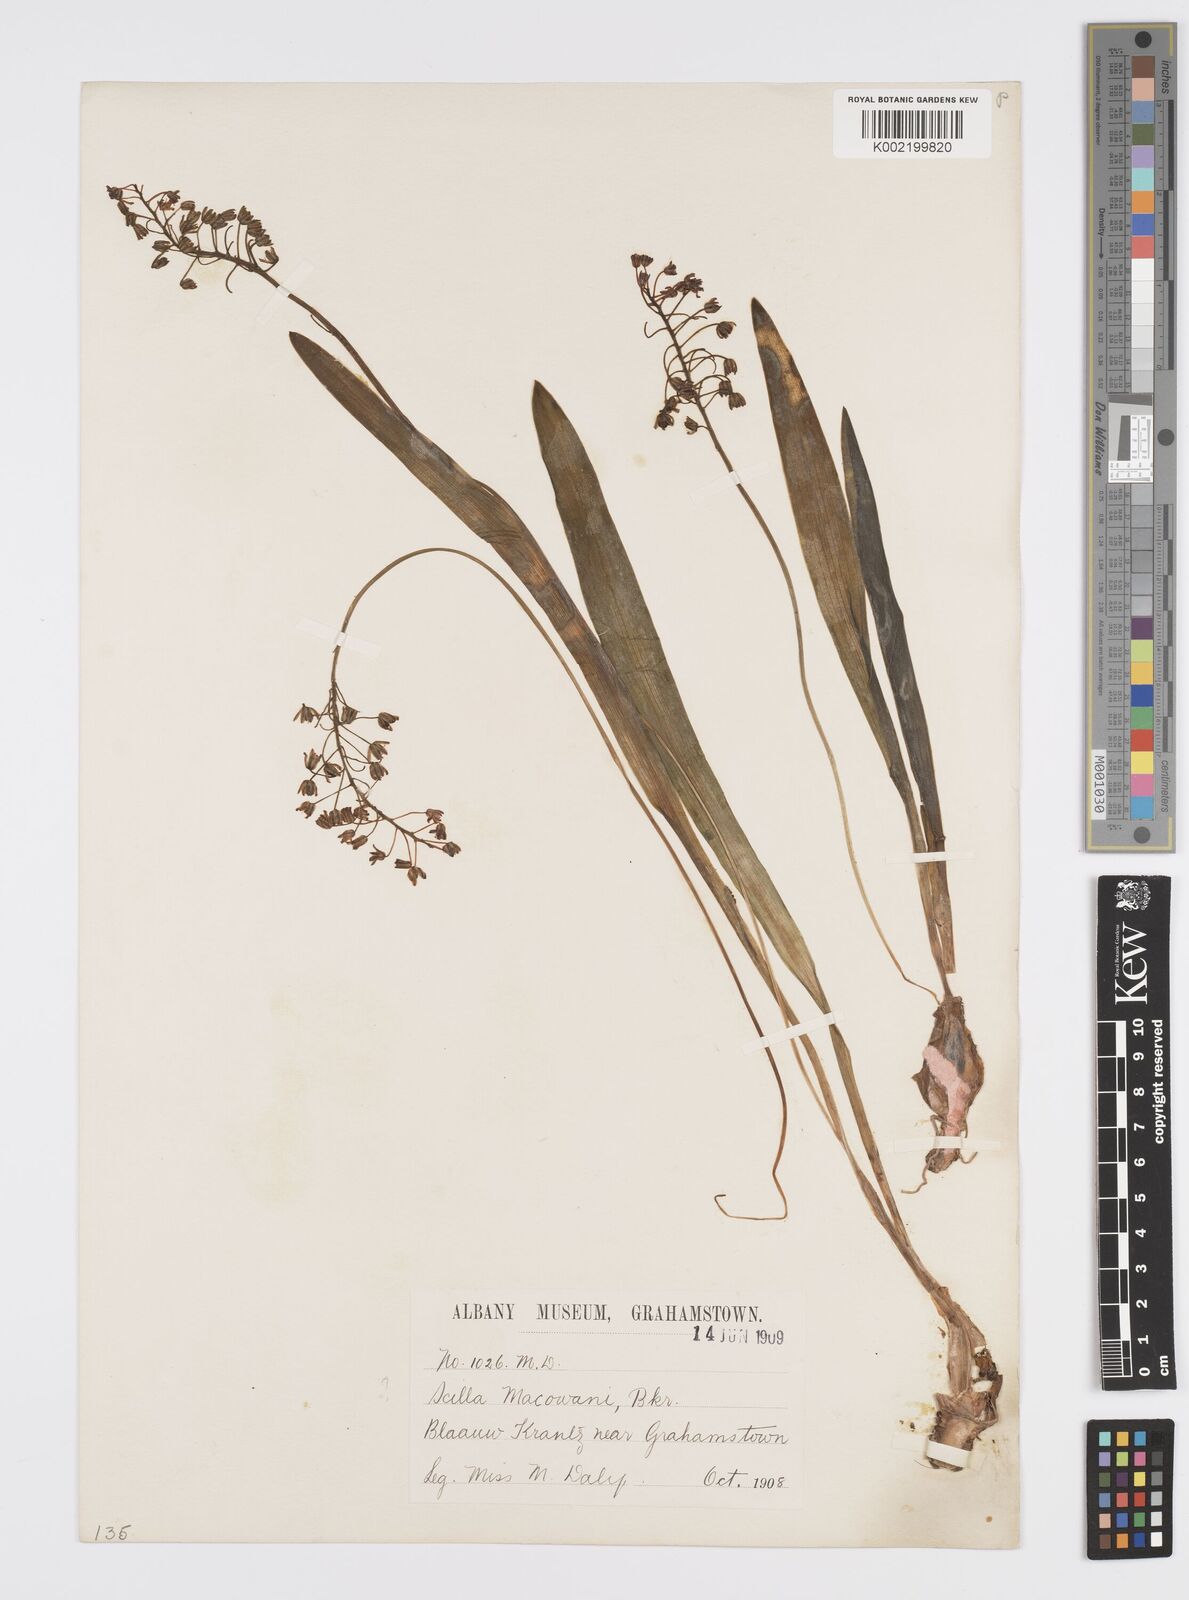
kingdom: Plantae
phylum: Tracheophyta
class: Liliopsida
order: Asparagales
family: Asparagaceae
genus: Ledebouria
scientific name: Ledebouria cooperi
